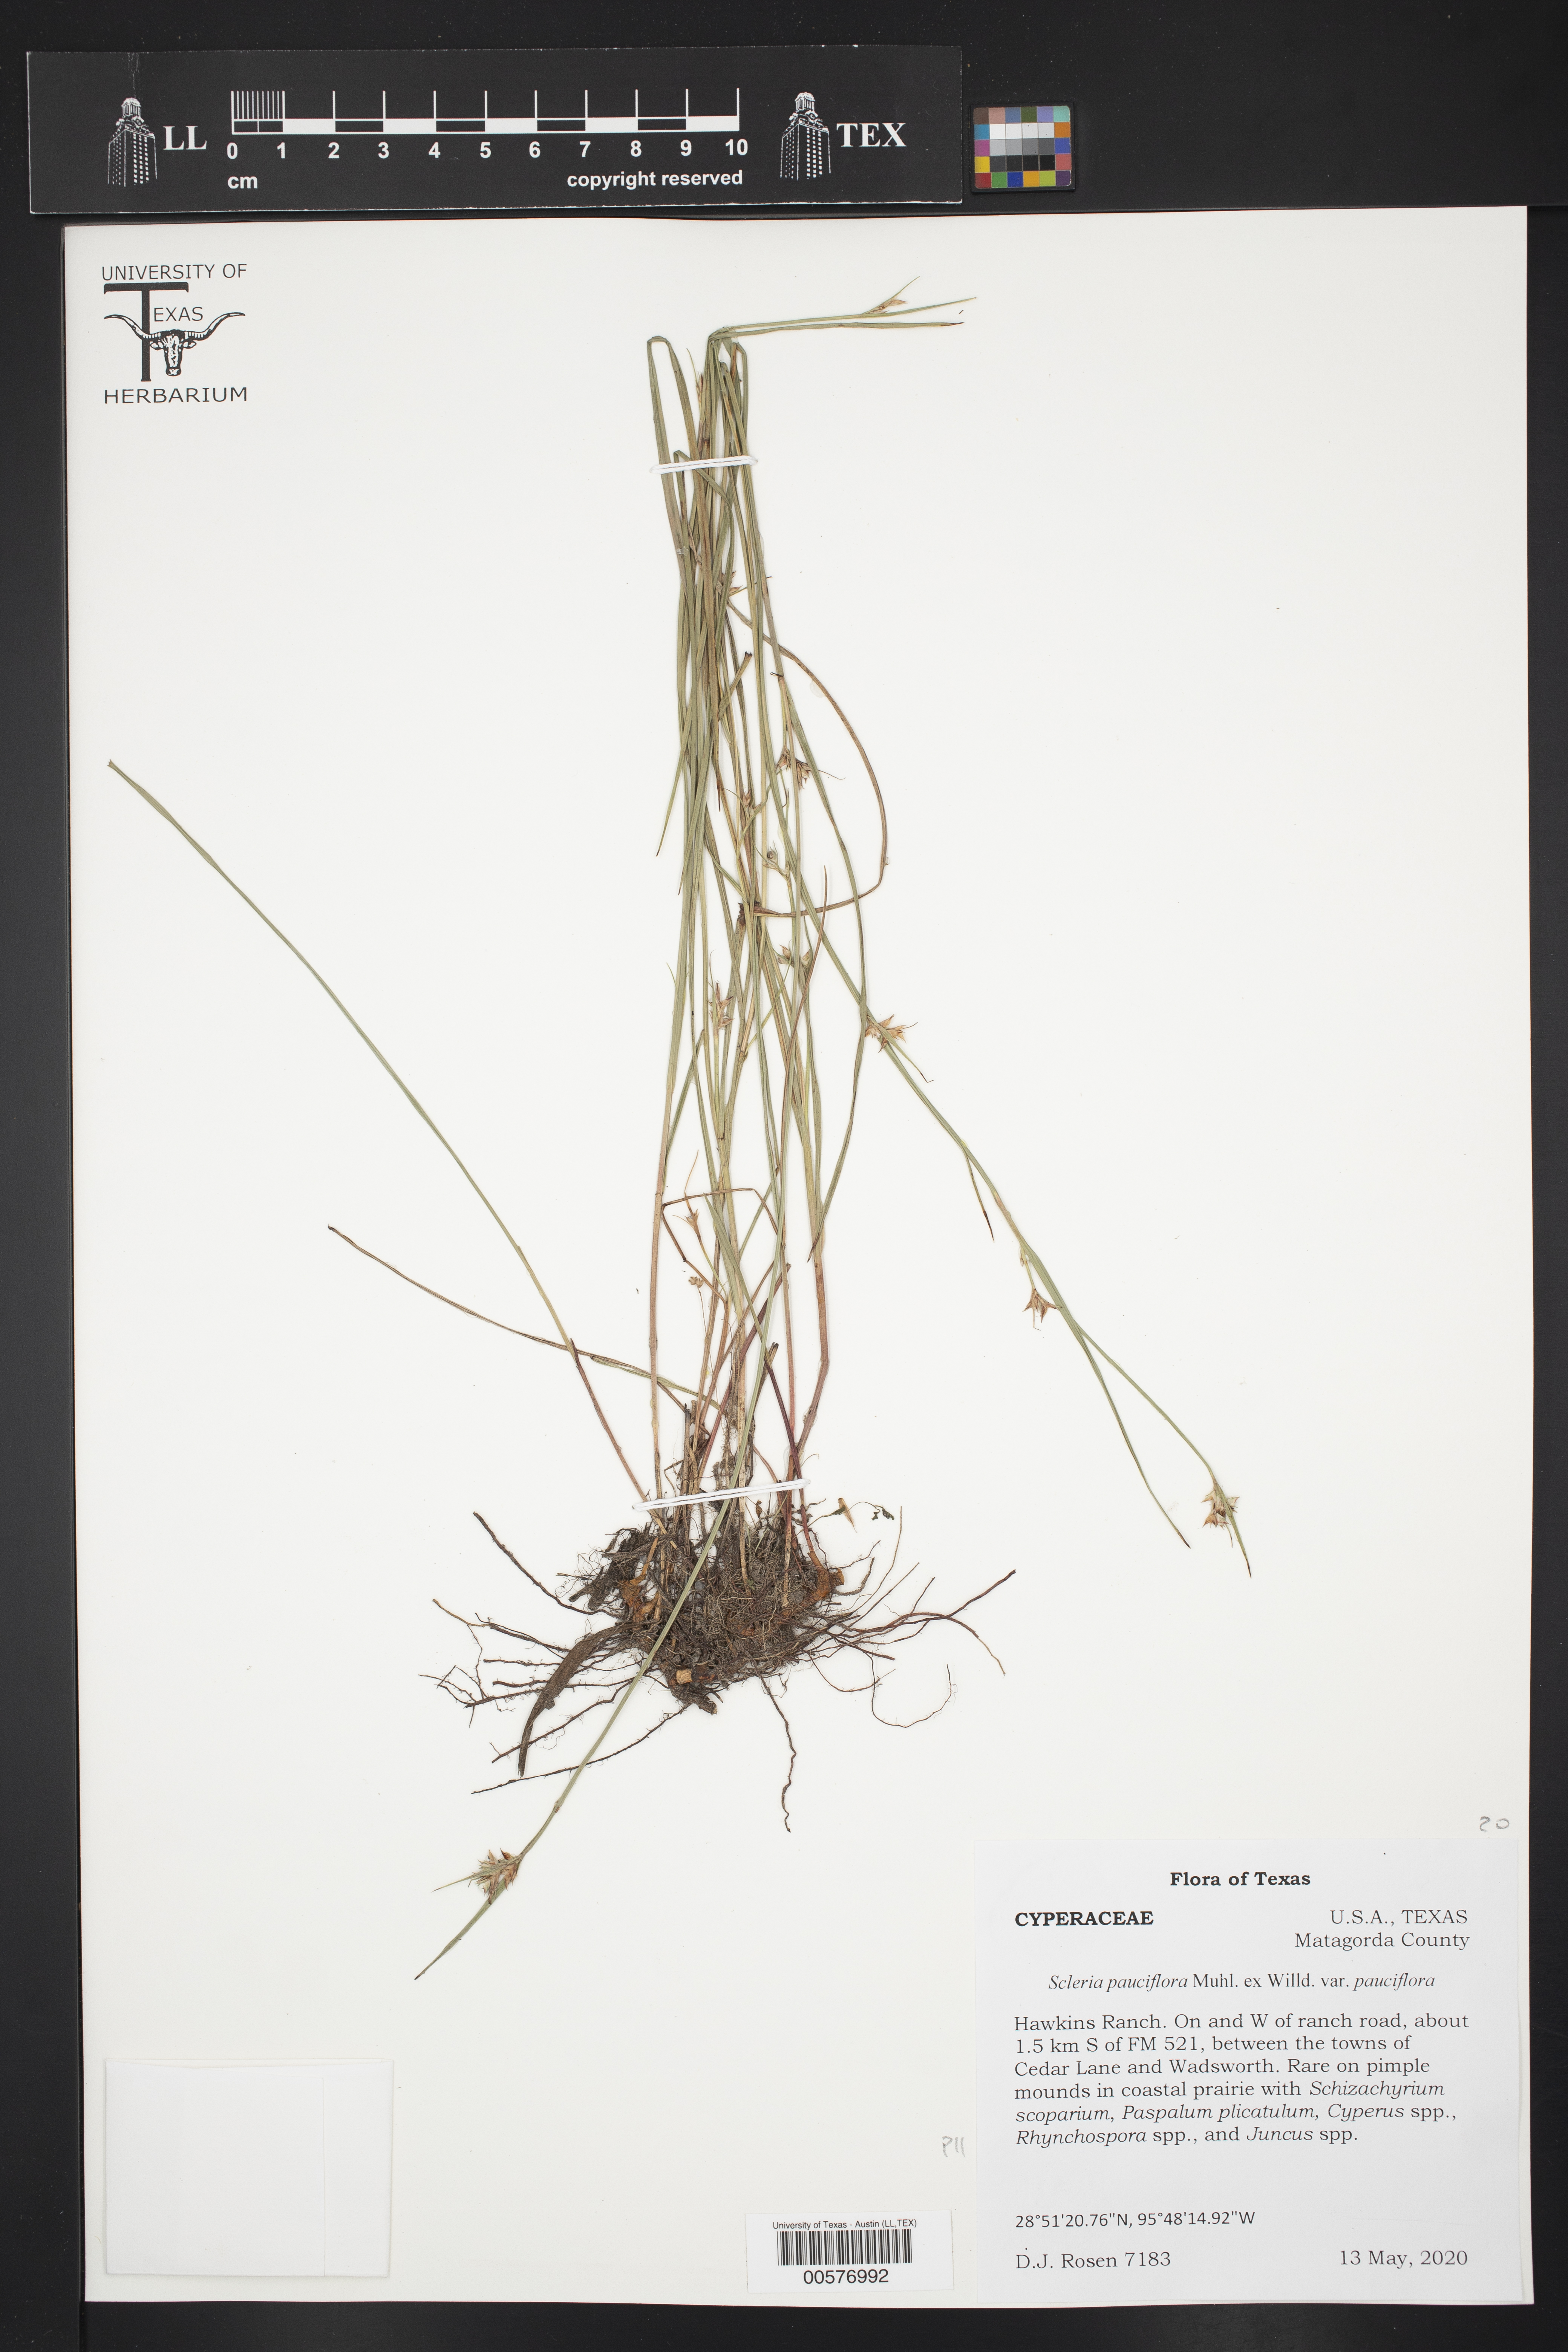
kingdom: Plantae
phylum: Tracheophyta
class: Liliopsida
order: Poales
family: Cyperaceae
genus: Scleria
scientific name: Scleria pauciflora
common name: Few-flowered nutrush
